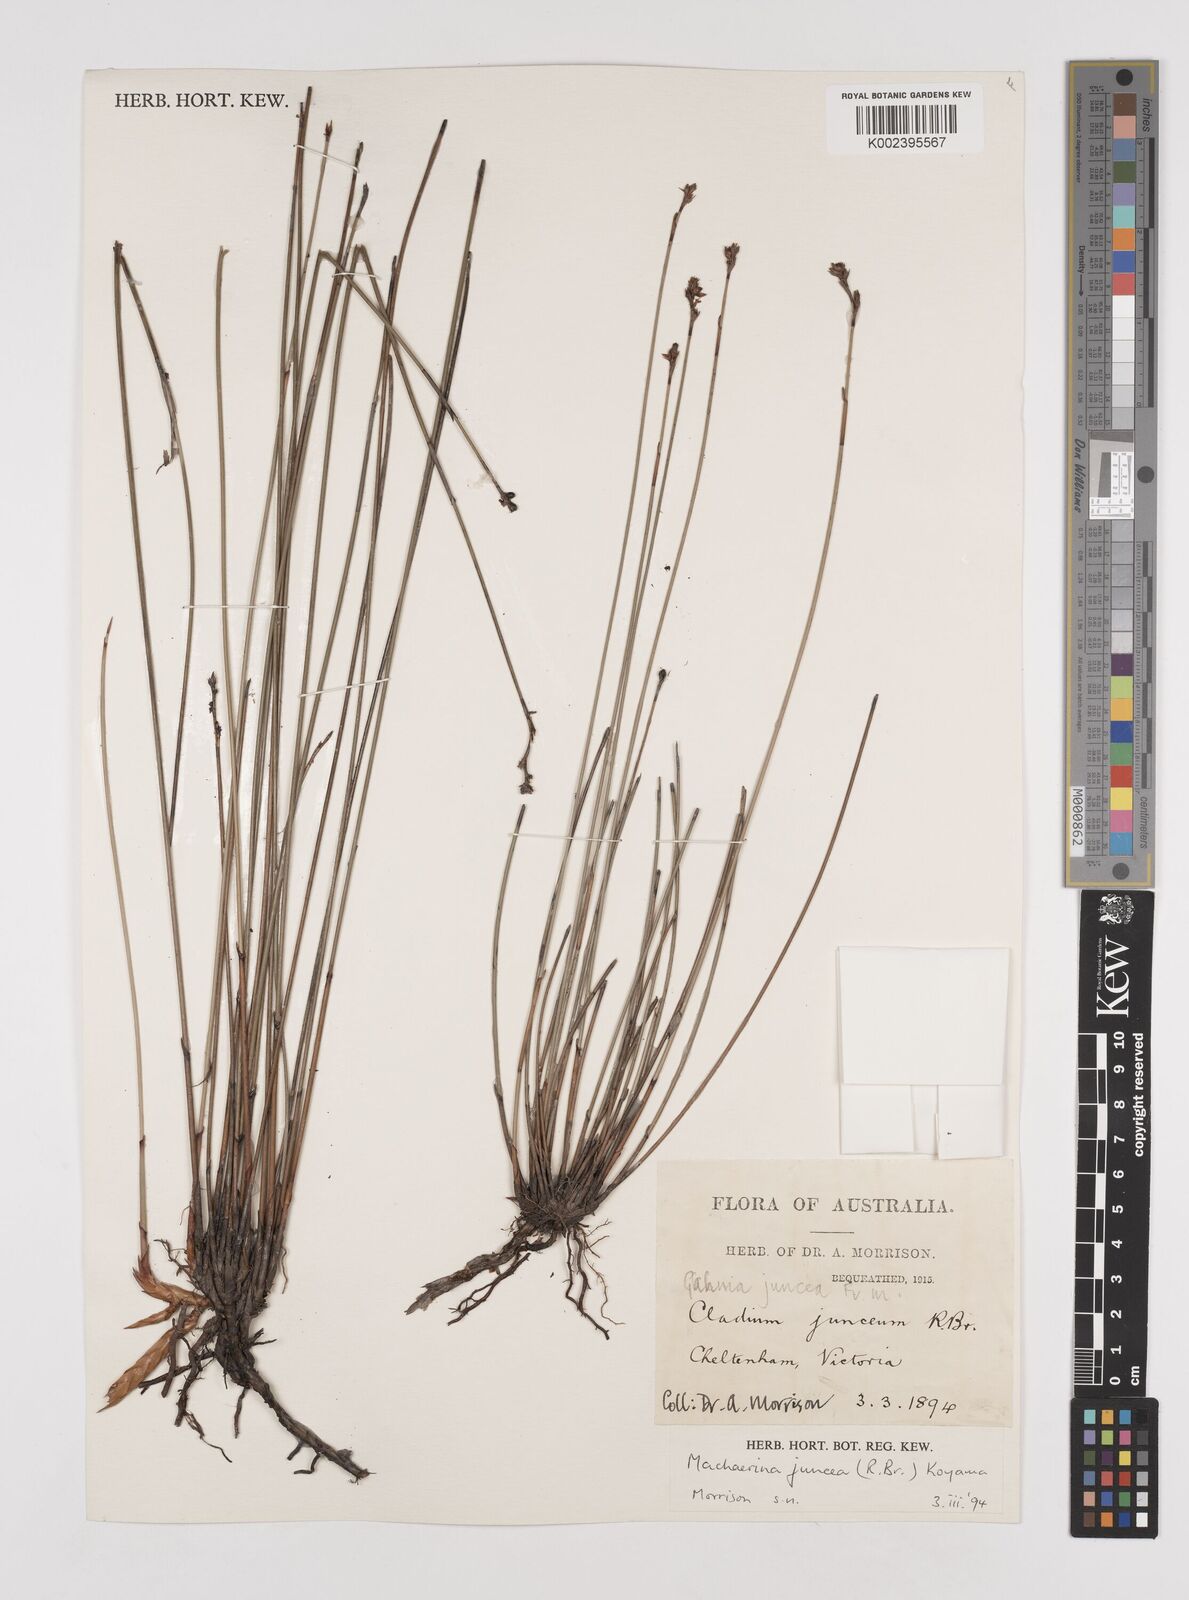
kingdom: Plantae
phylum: Tracheophyta
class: Liliopsida
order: Poales
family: Cyperaceae
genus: Machaerina
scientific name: Machaerina juncea
